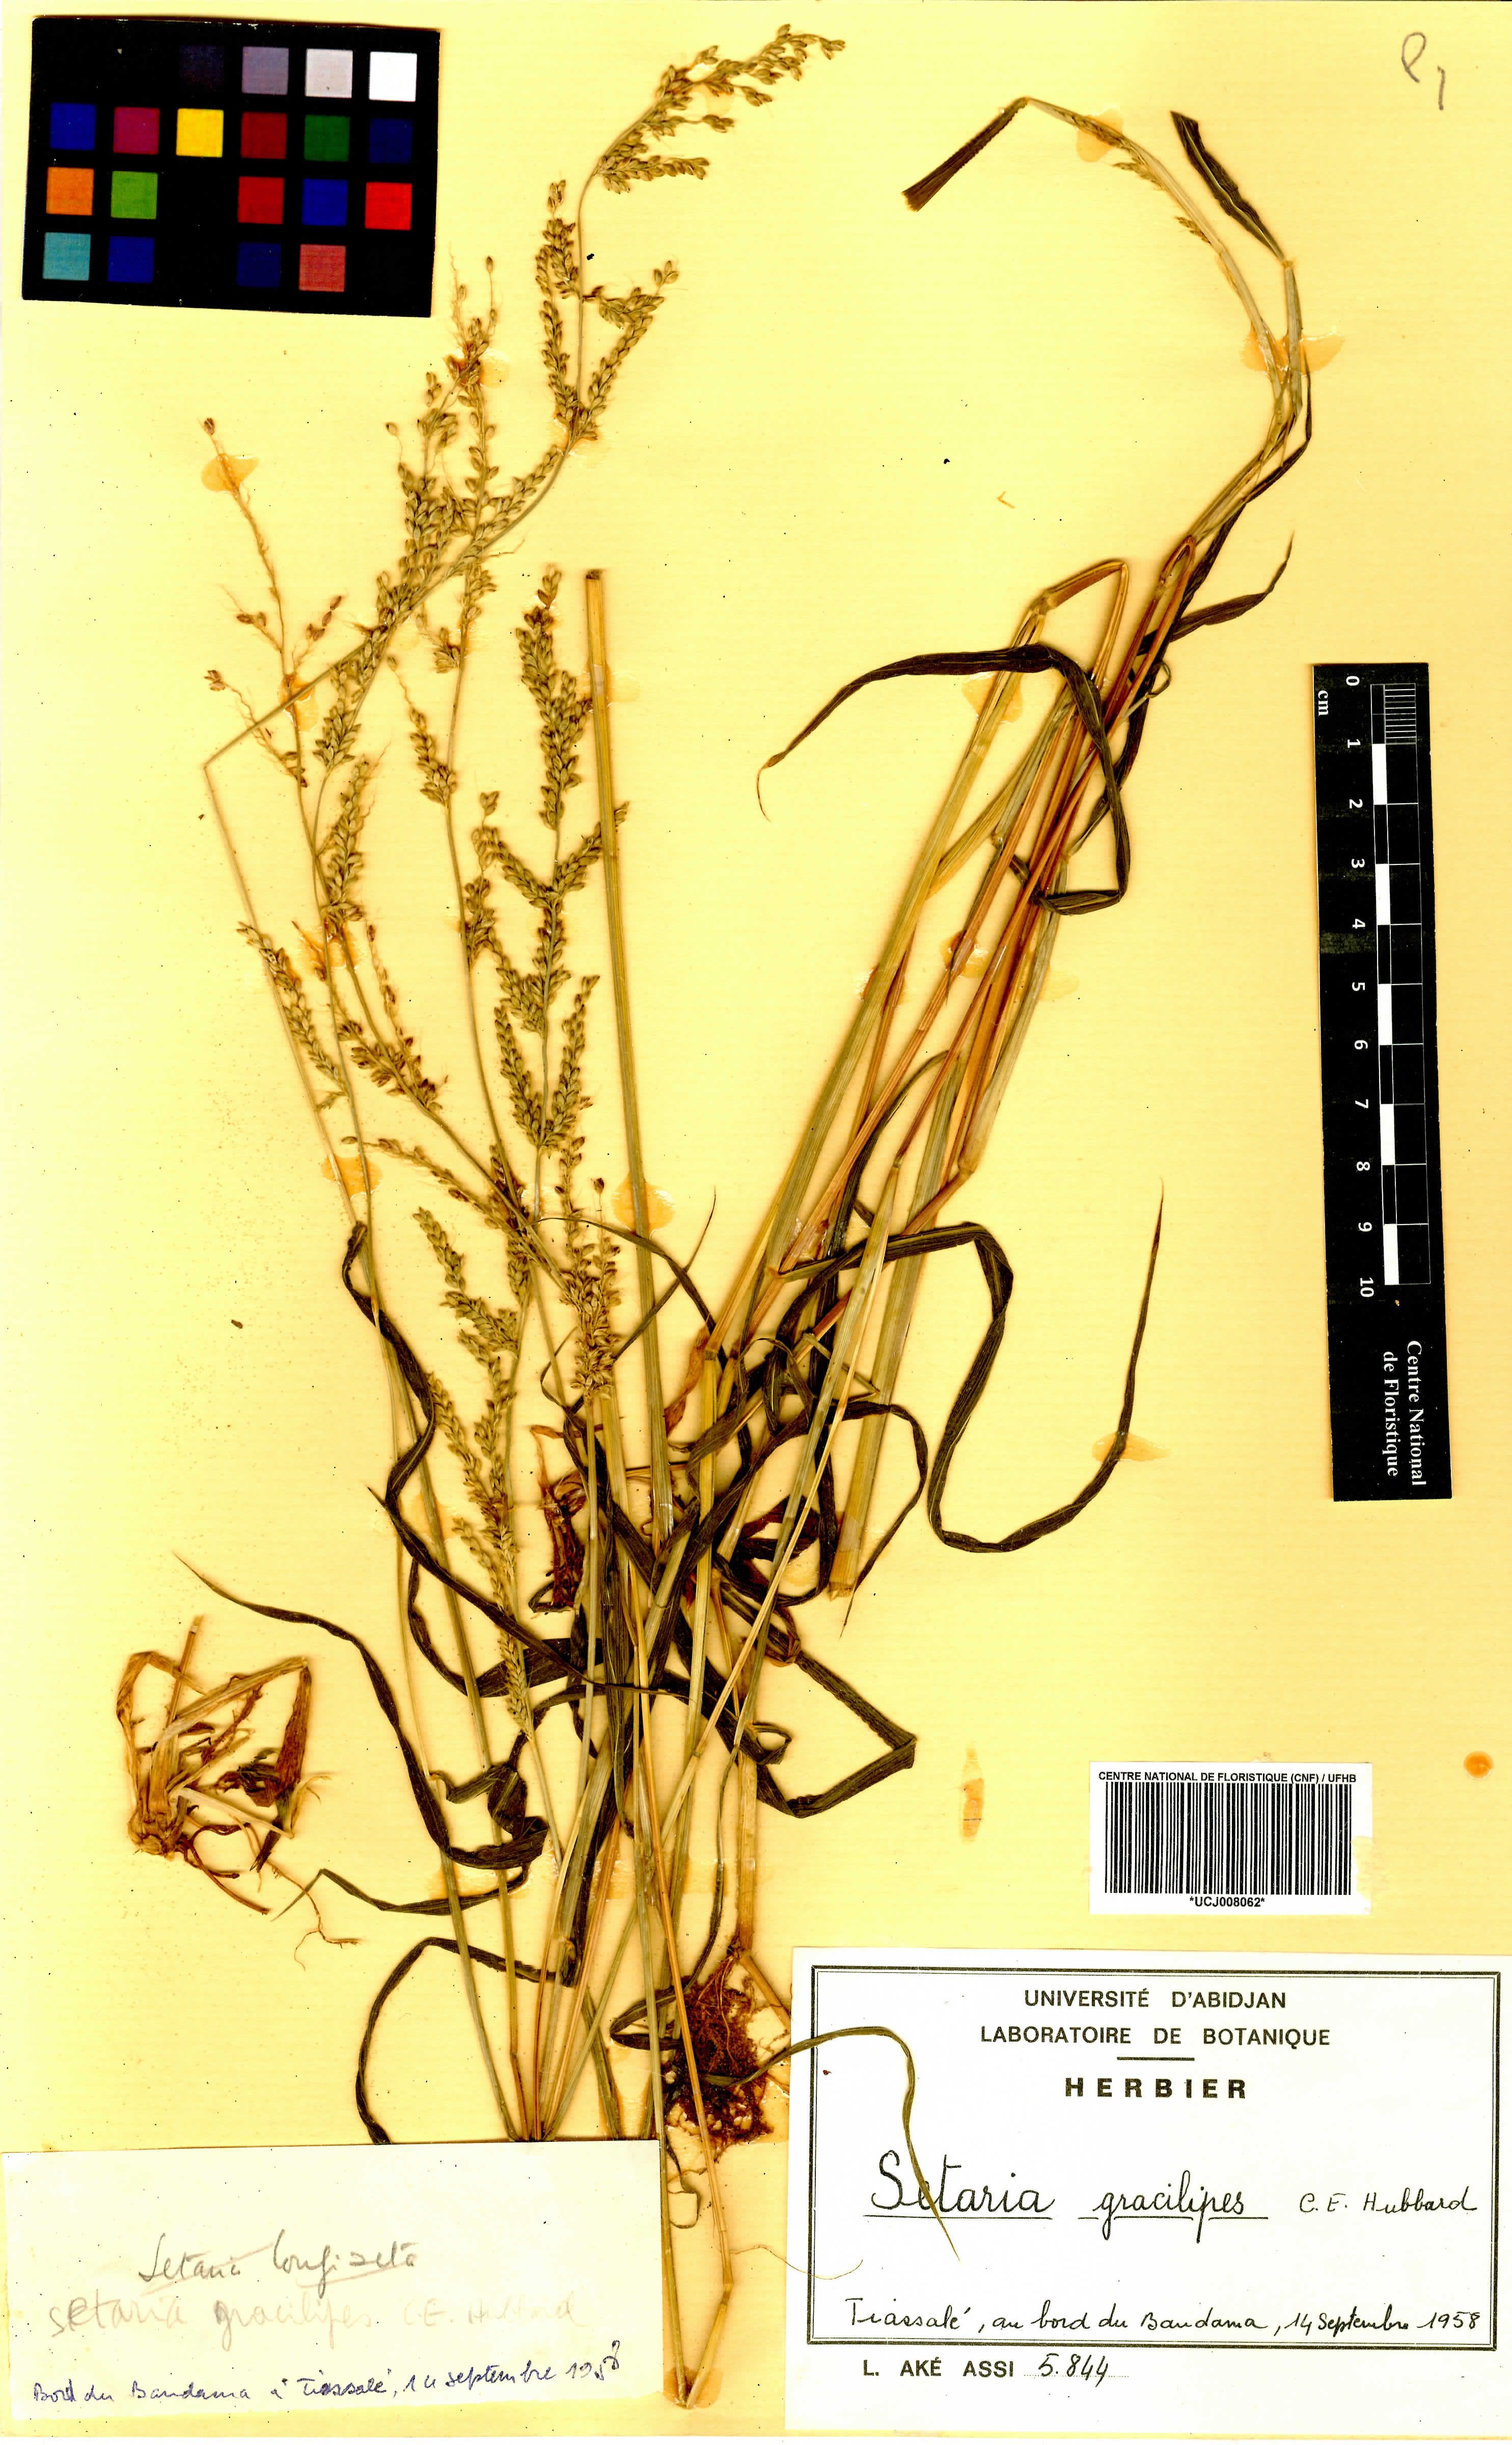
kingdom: Plantae
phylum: Tracheophyta
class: Liliopsida
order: Poales
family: Poaceae
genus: Setaria
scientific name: Setaria kagerensis
